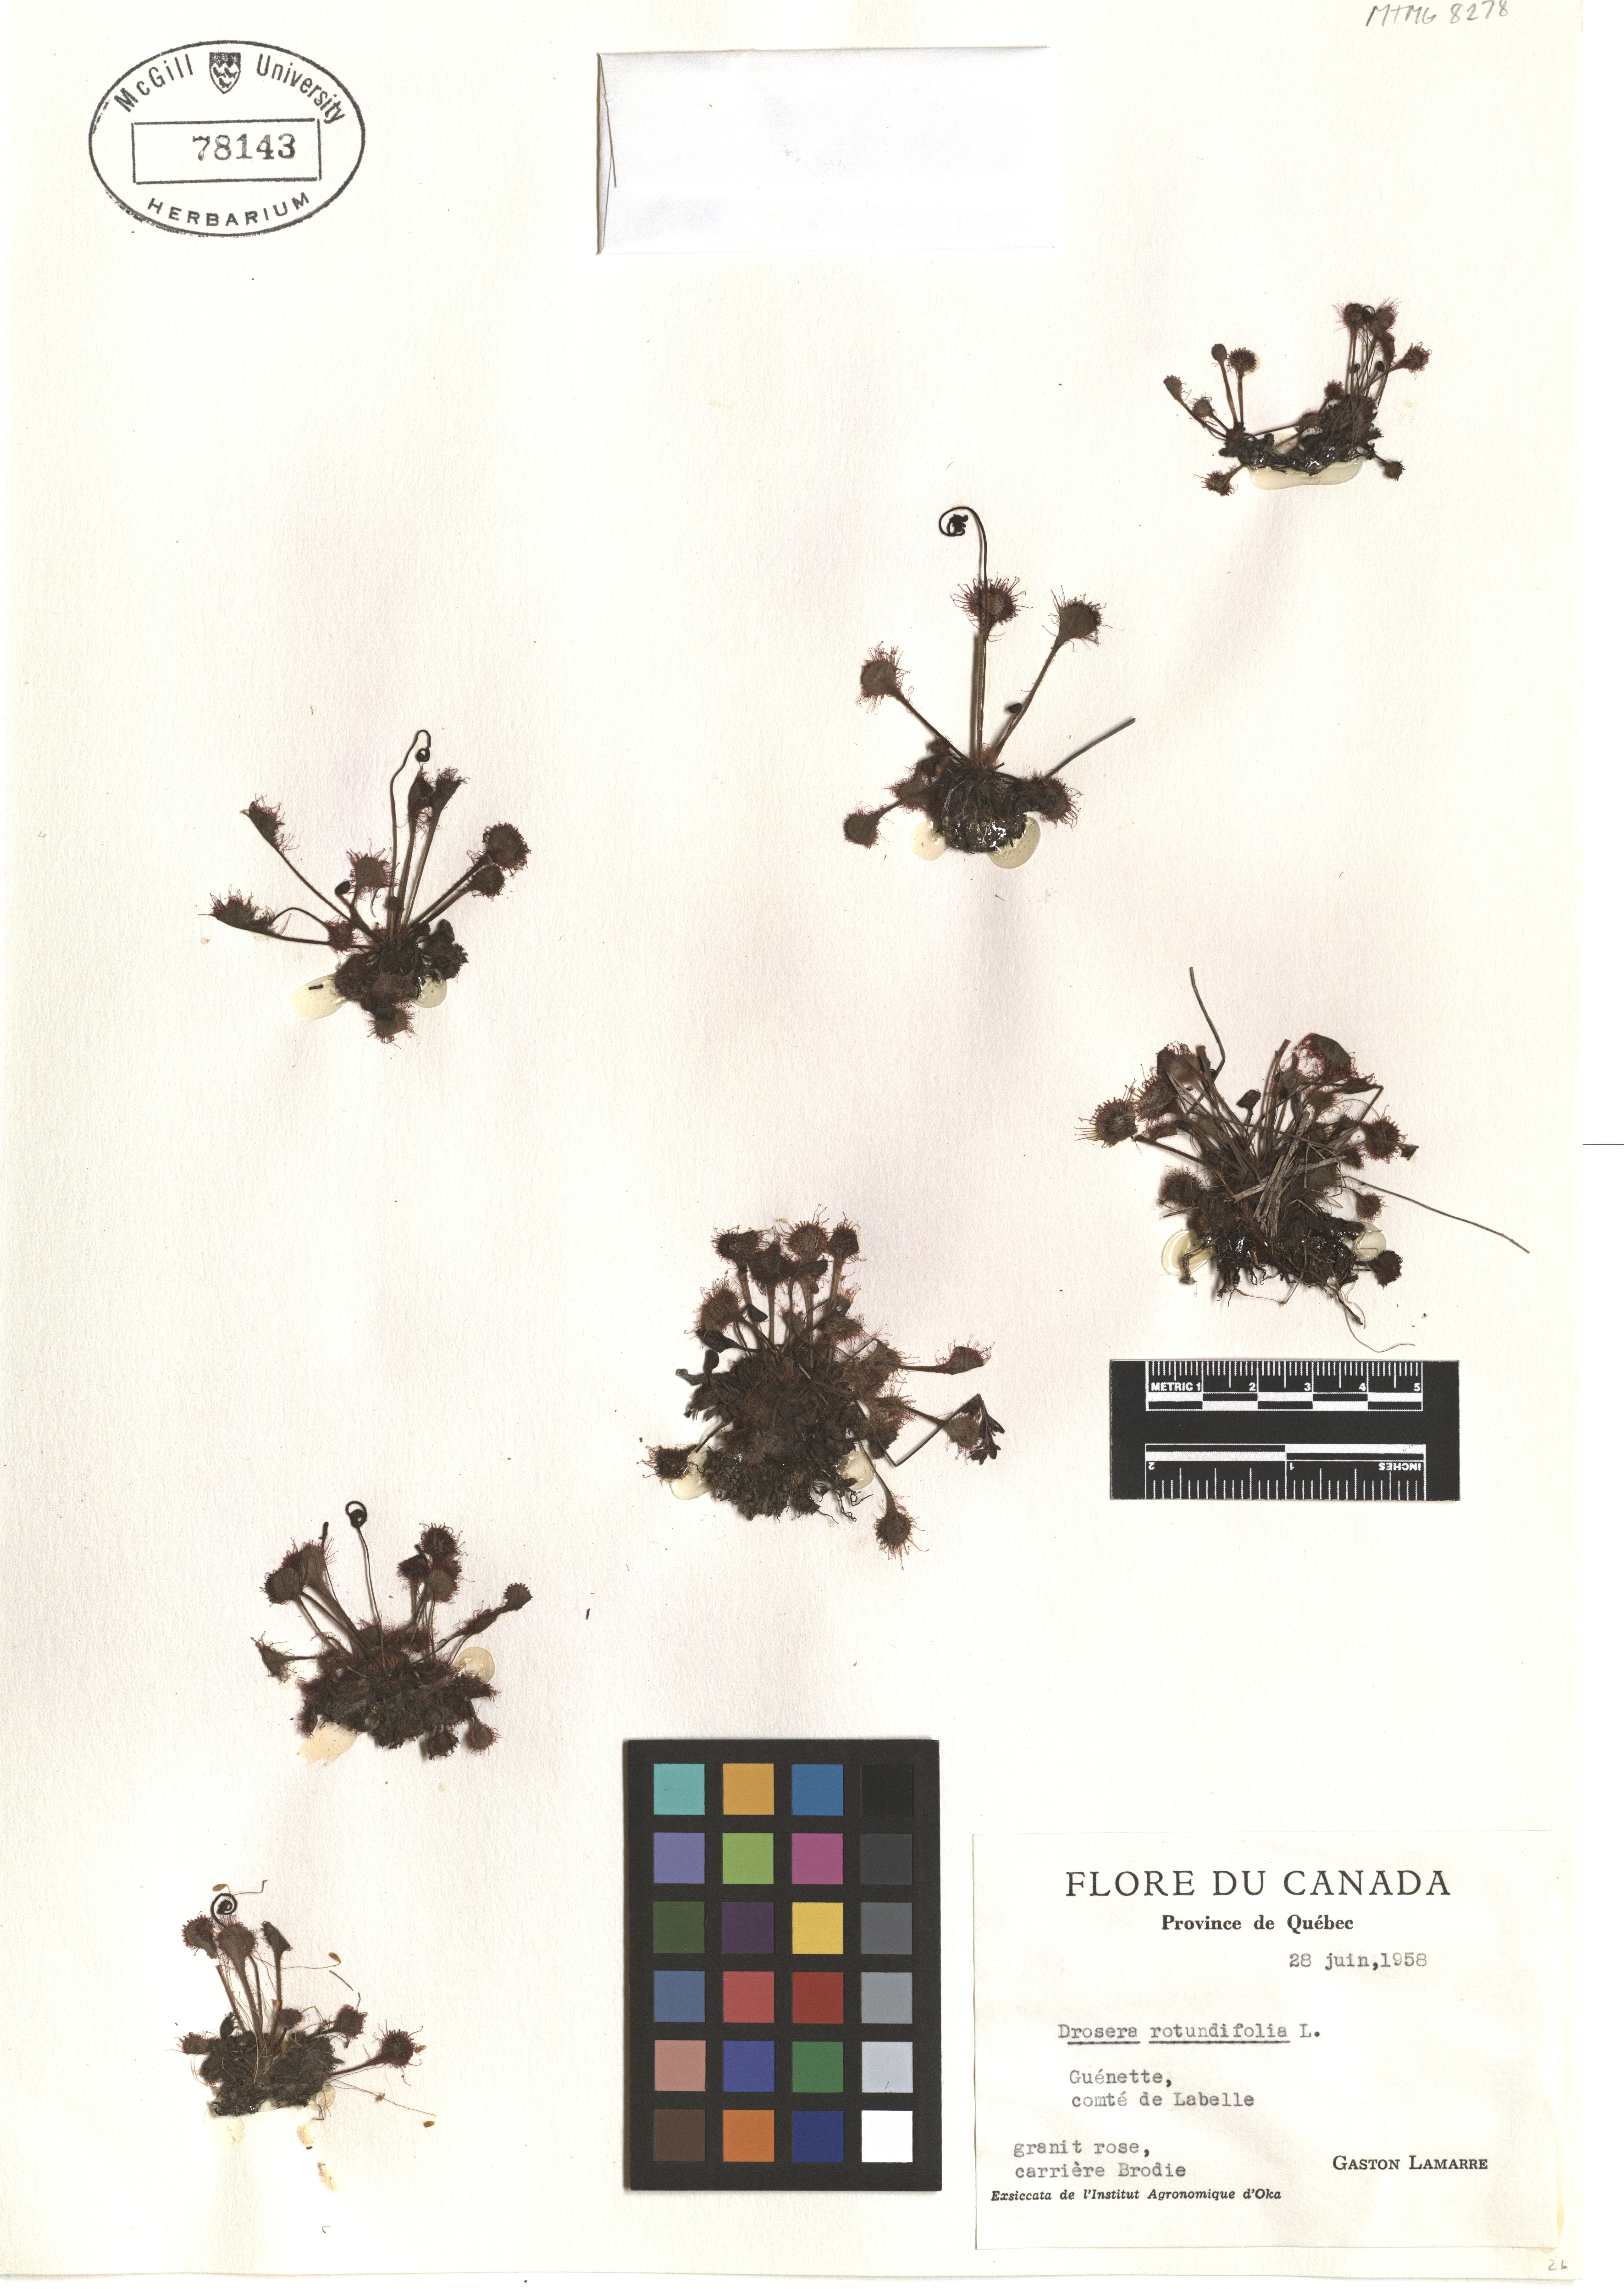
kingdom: Plantae
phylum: Tracheophyta
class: Magnoliopsida
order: Caryophyllales
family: Droseraceae
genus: Drosera
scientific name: Drosera rotundifolia
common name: Round-leaved sundew
